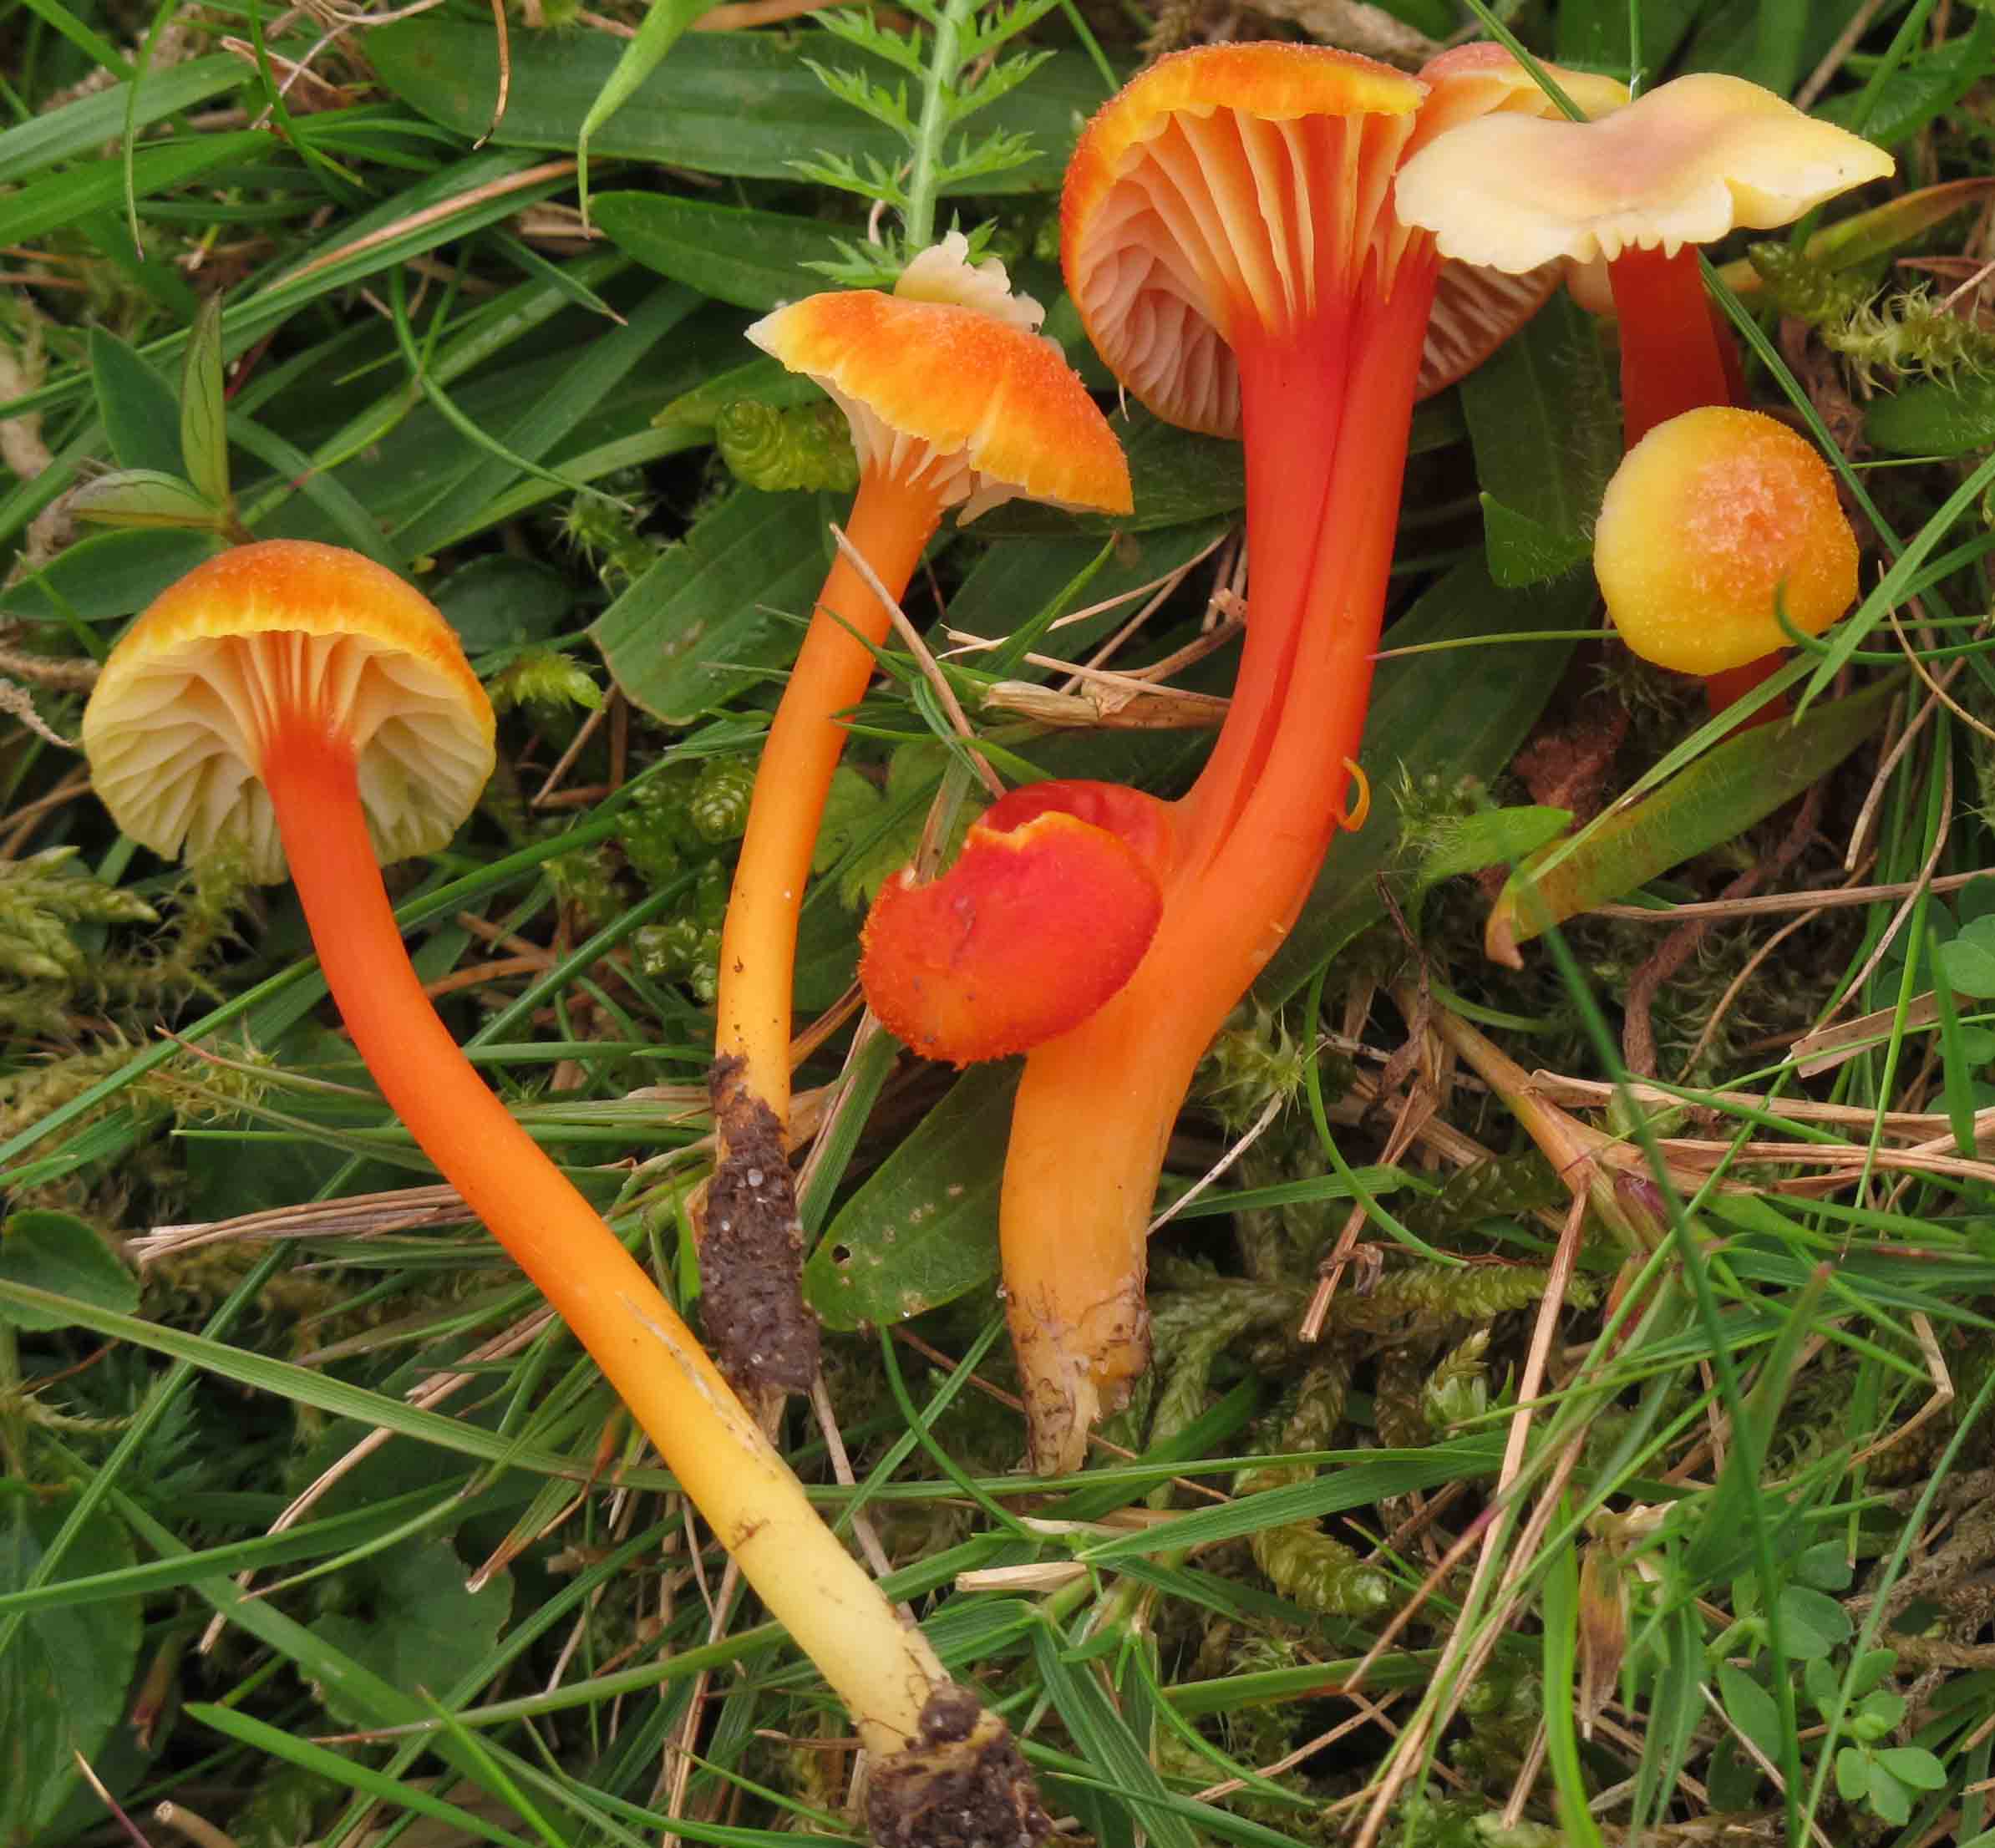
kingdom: Fungi
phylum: Basidiomycota
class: Agaricomycetes
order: Agaricales
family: Hygrophoraceae
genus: Hygrocybe
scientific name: Hygrocybe cantharellus
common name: kantarel-vokshat
